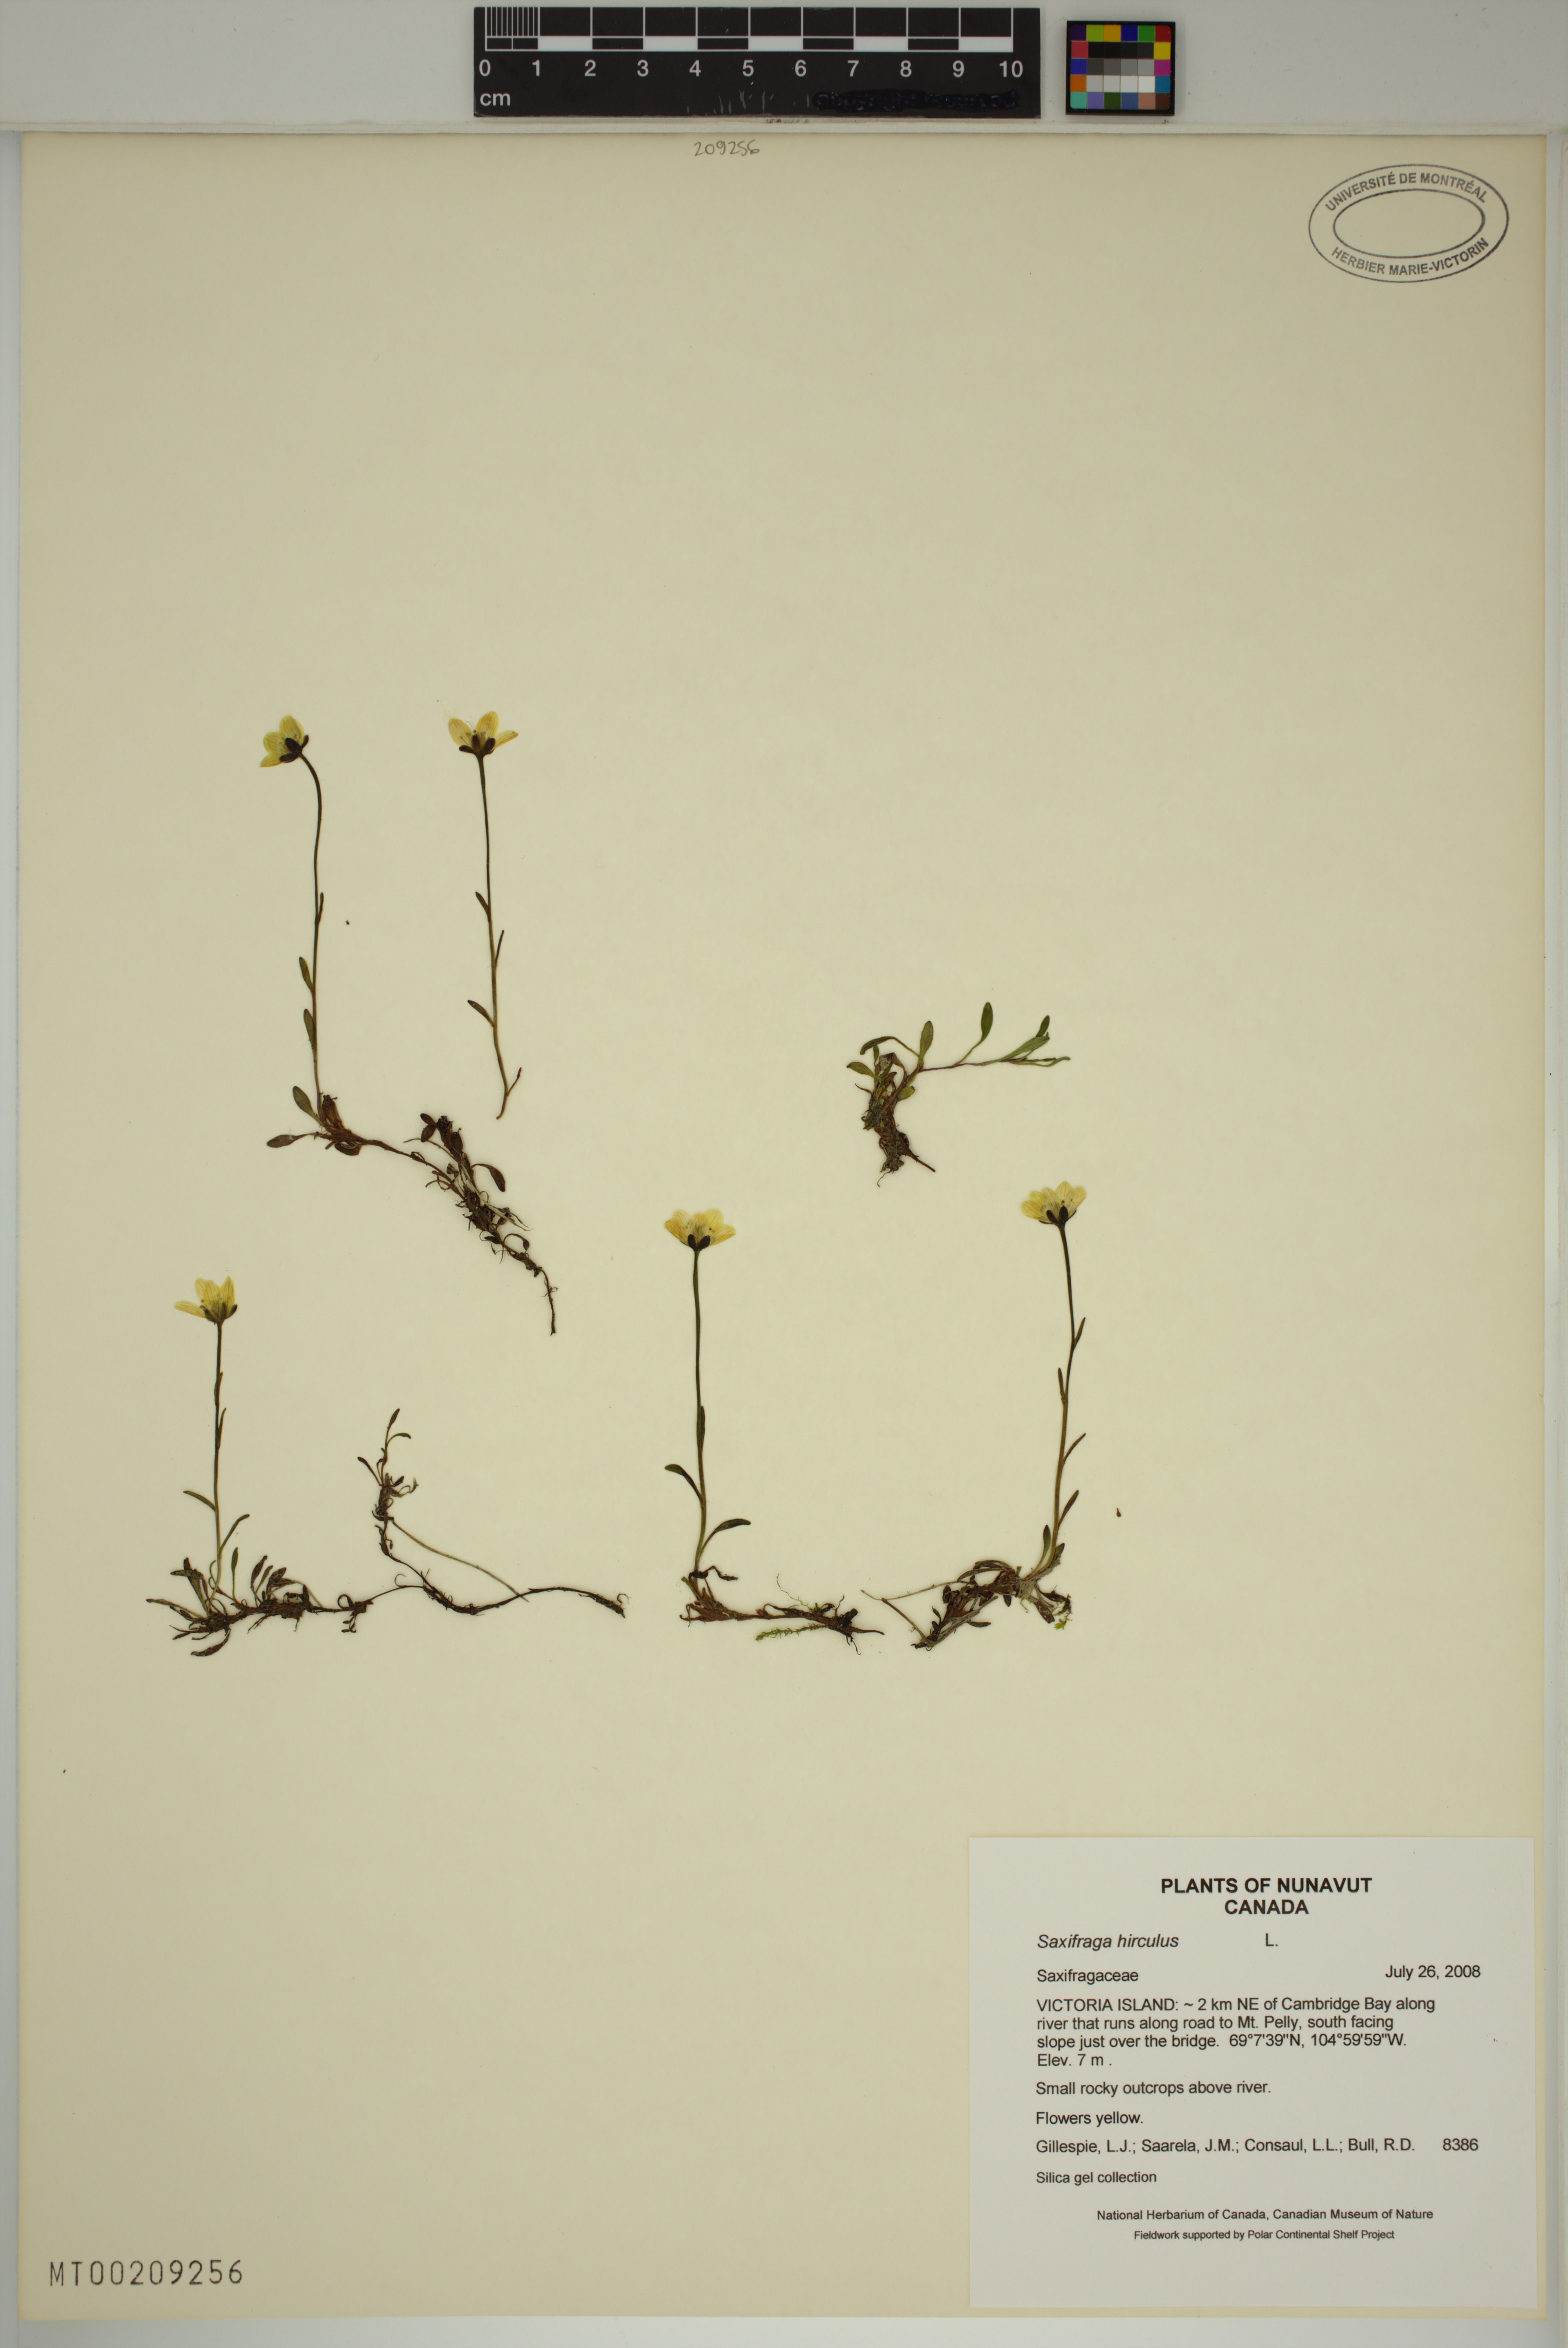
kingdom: Plantae
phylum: Tracheophyta
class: Magnoliopsida
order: Saxifragales
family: Saxifragaceae
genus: Saxifraga
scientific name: Saxifraga hirculus
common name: Yellow marsh saxifrage
